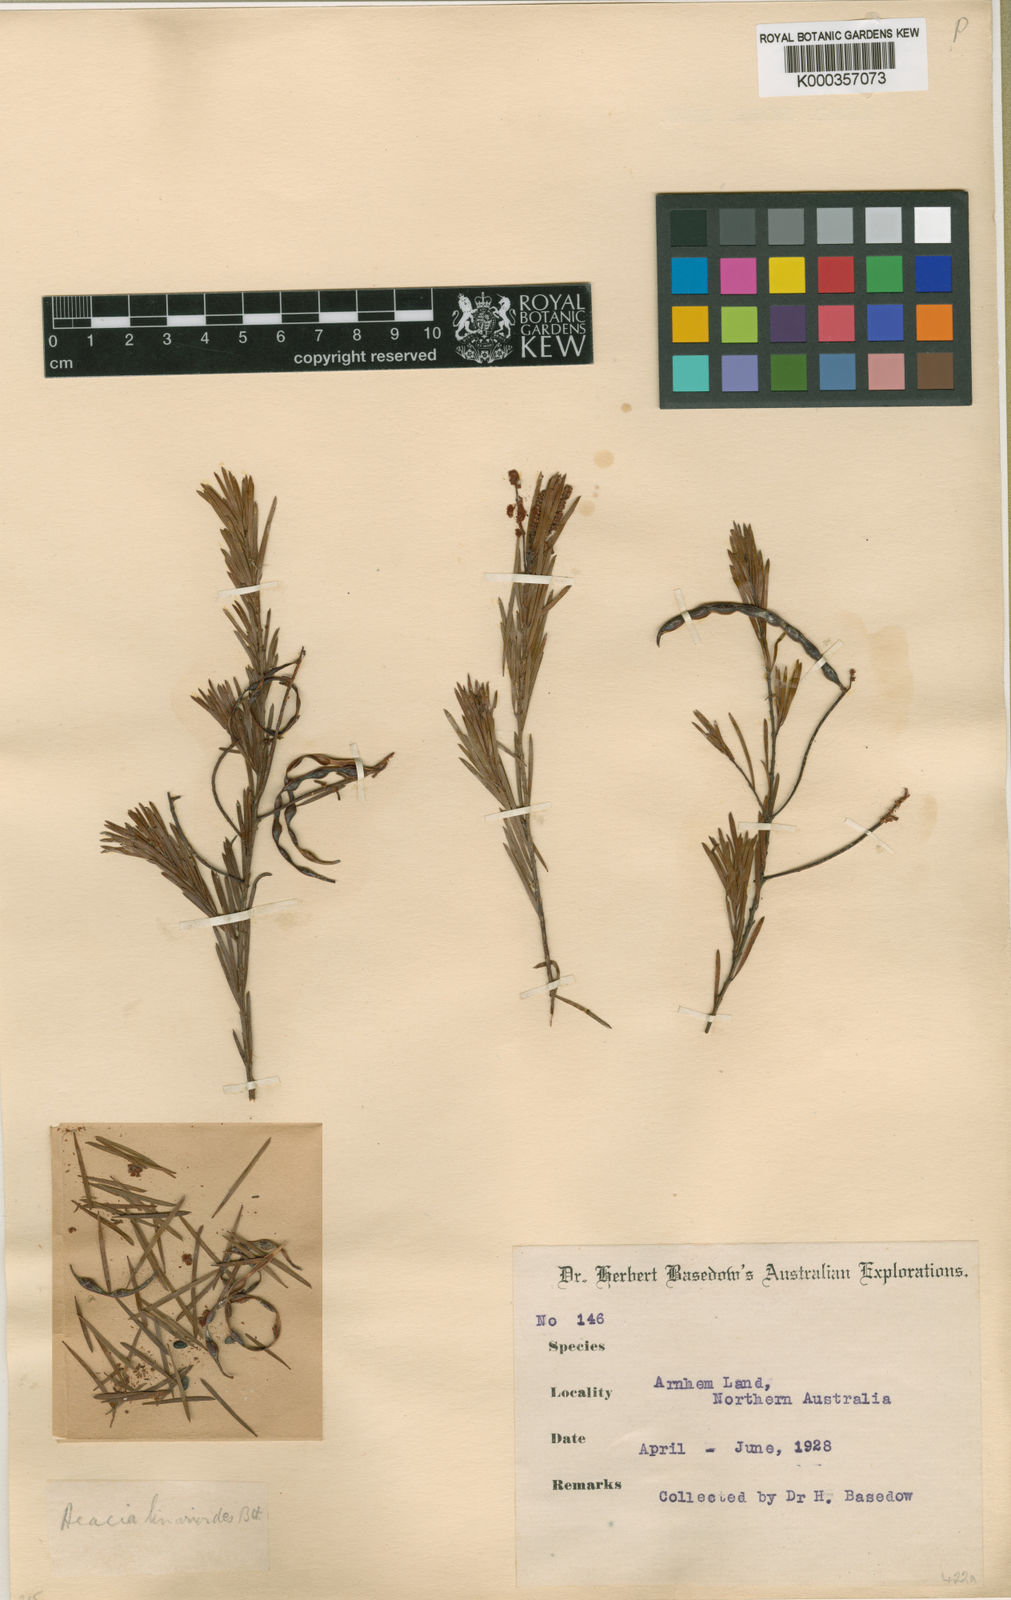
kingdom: Plantae
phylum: Tracheophyta
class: Magnoliopsida
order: Fabales
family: Fabaceae
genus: Acacia
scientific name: Acacia linarioides
